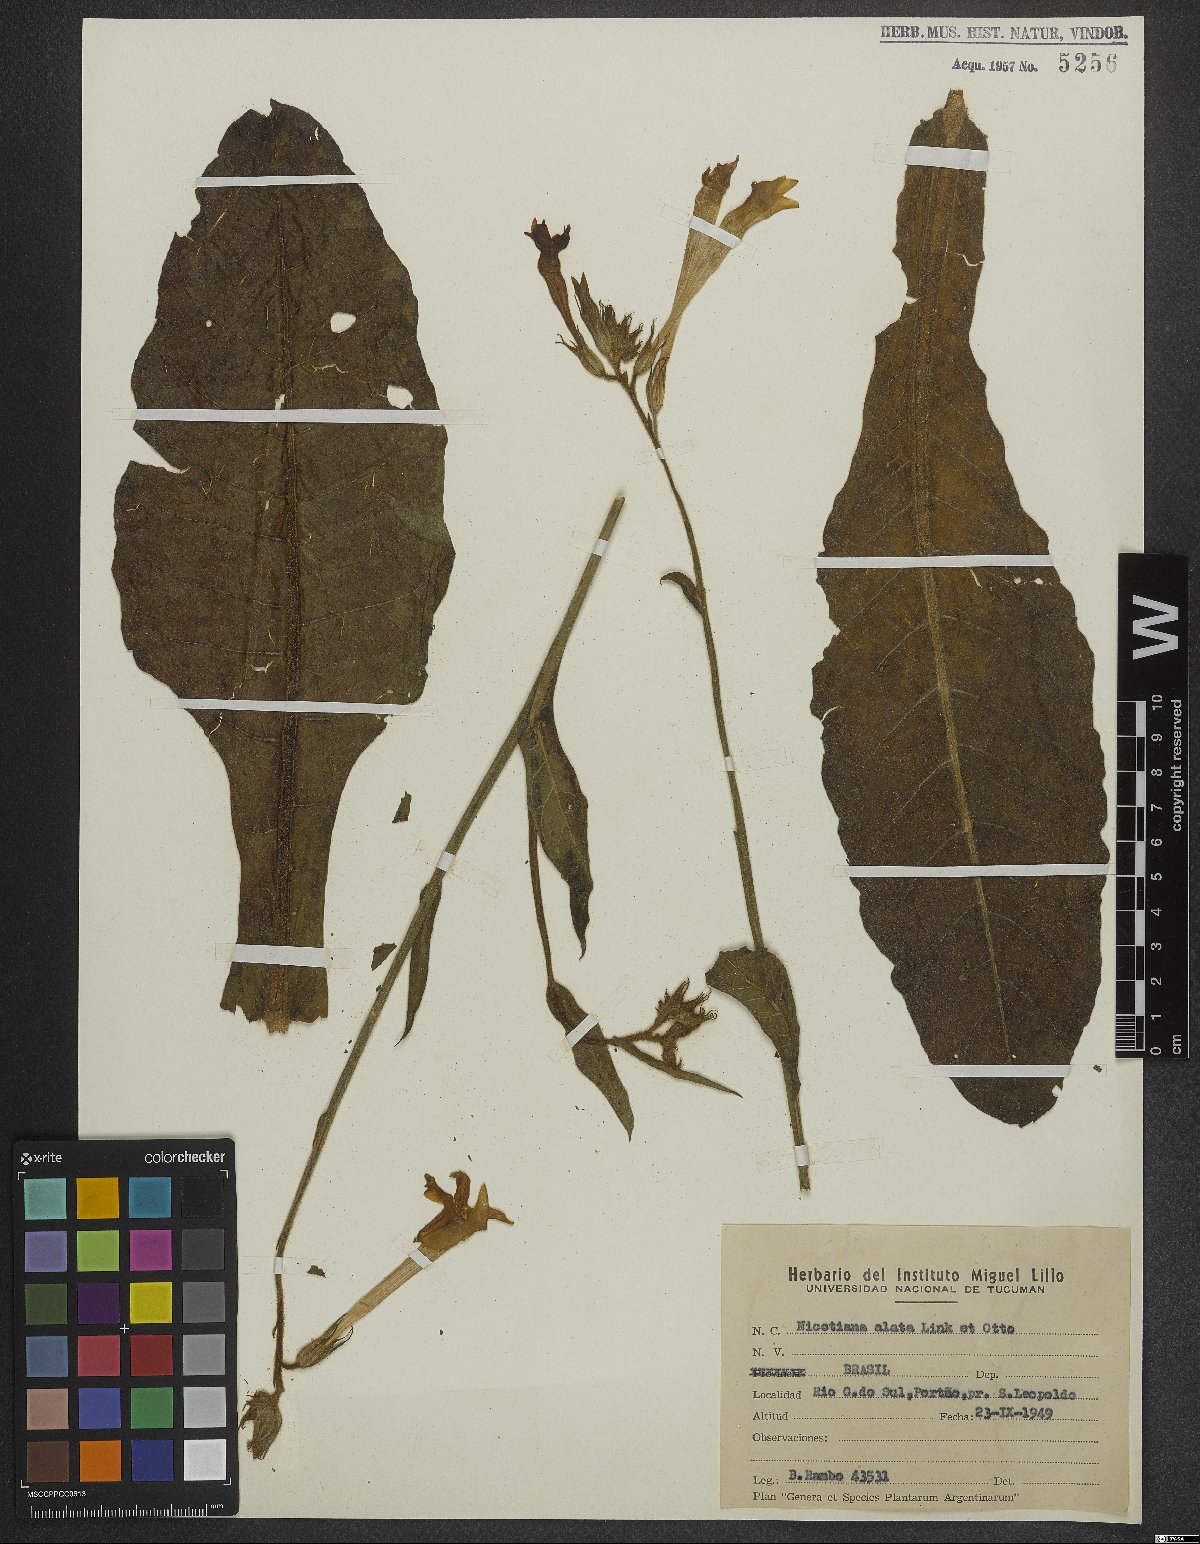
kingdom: Plantae
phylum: Tracheophyta
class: Magnoliopsida
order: Solanales
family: Solanaceae
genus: Nicotiana
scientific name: Nicotiana alata
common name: Jasmine tobacco
